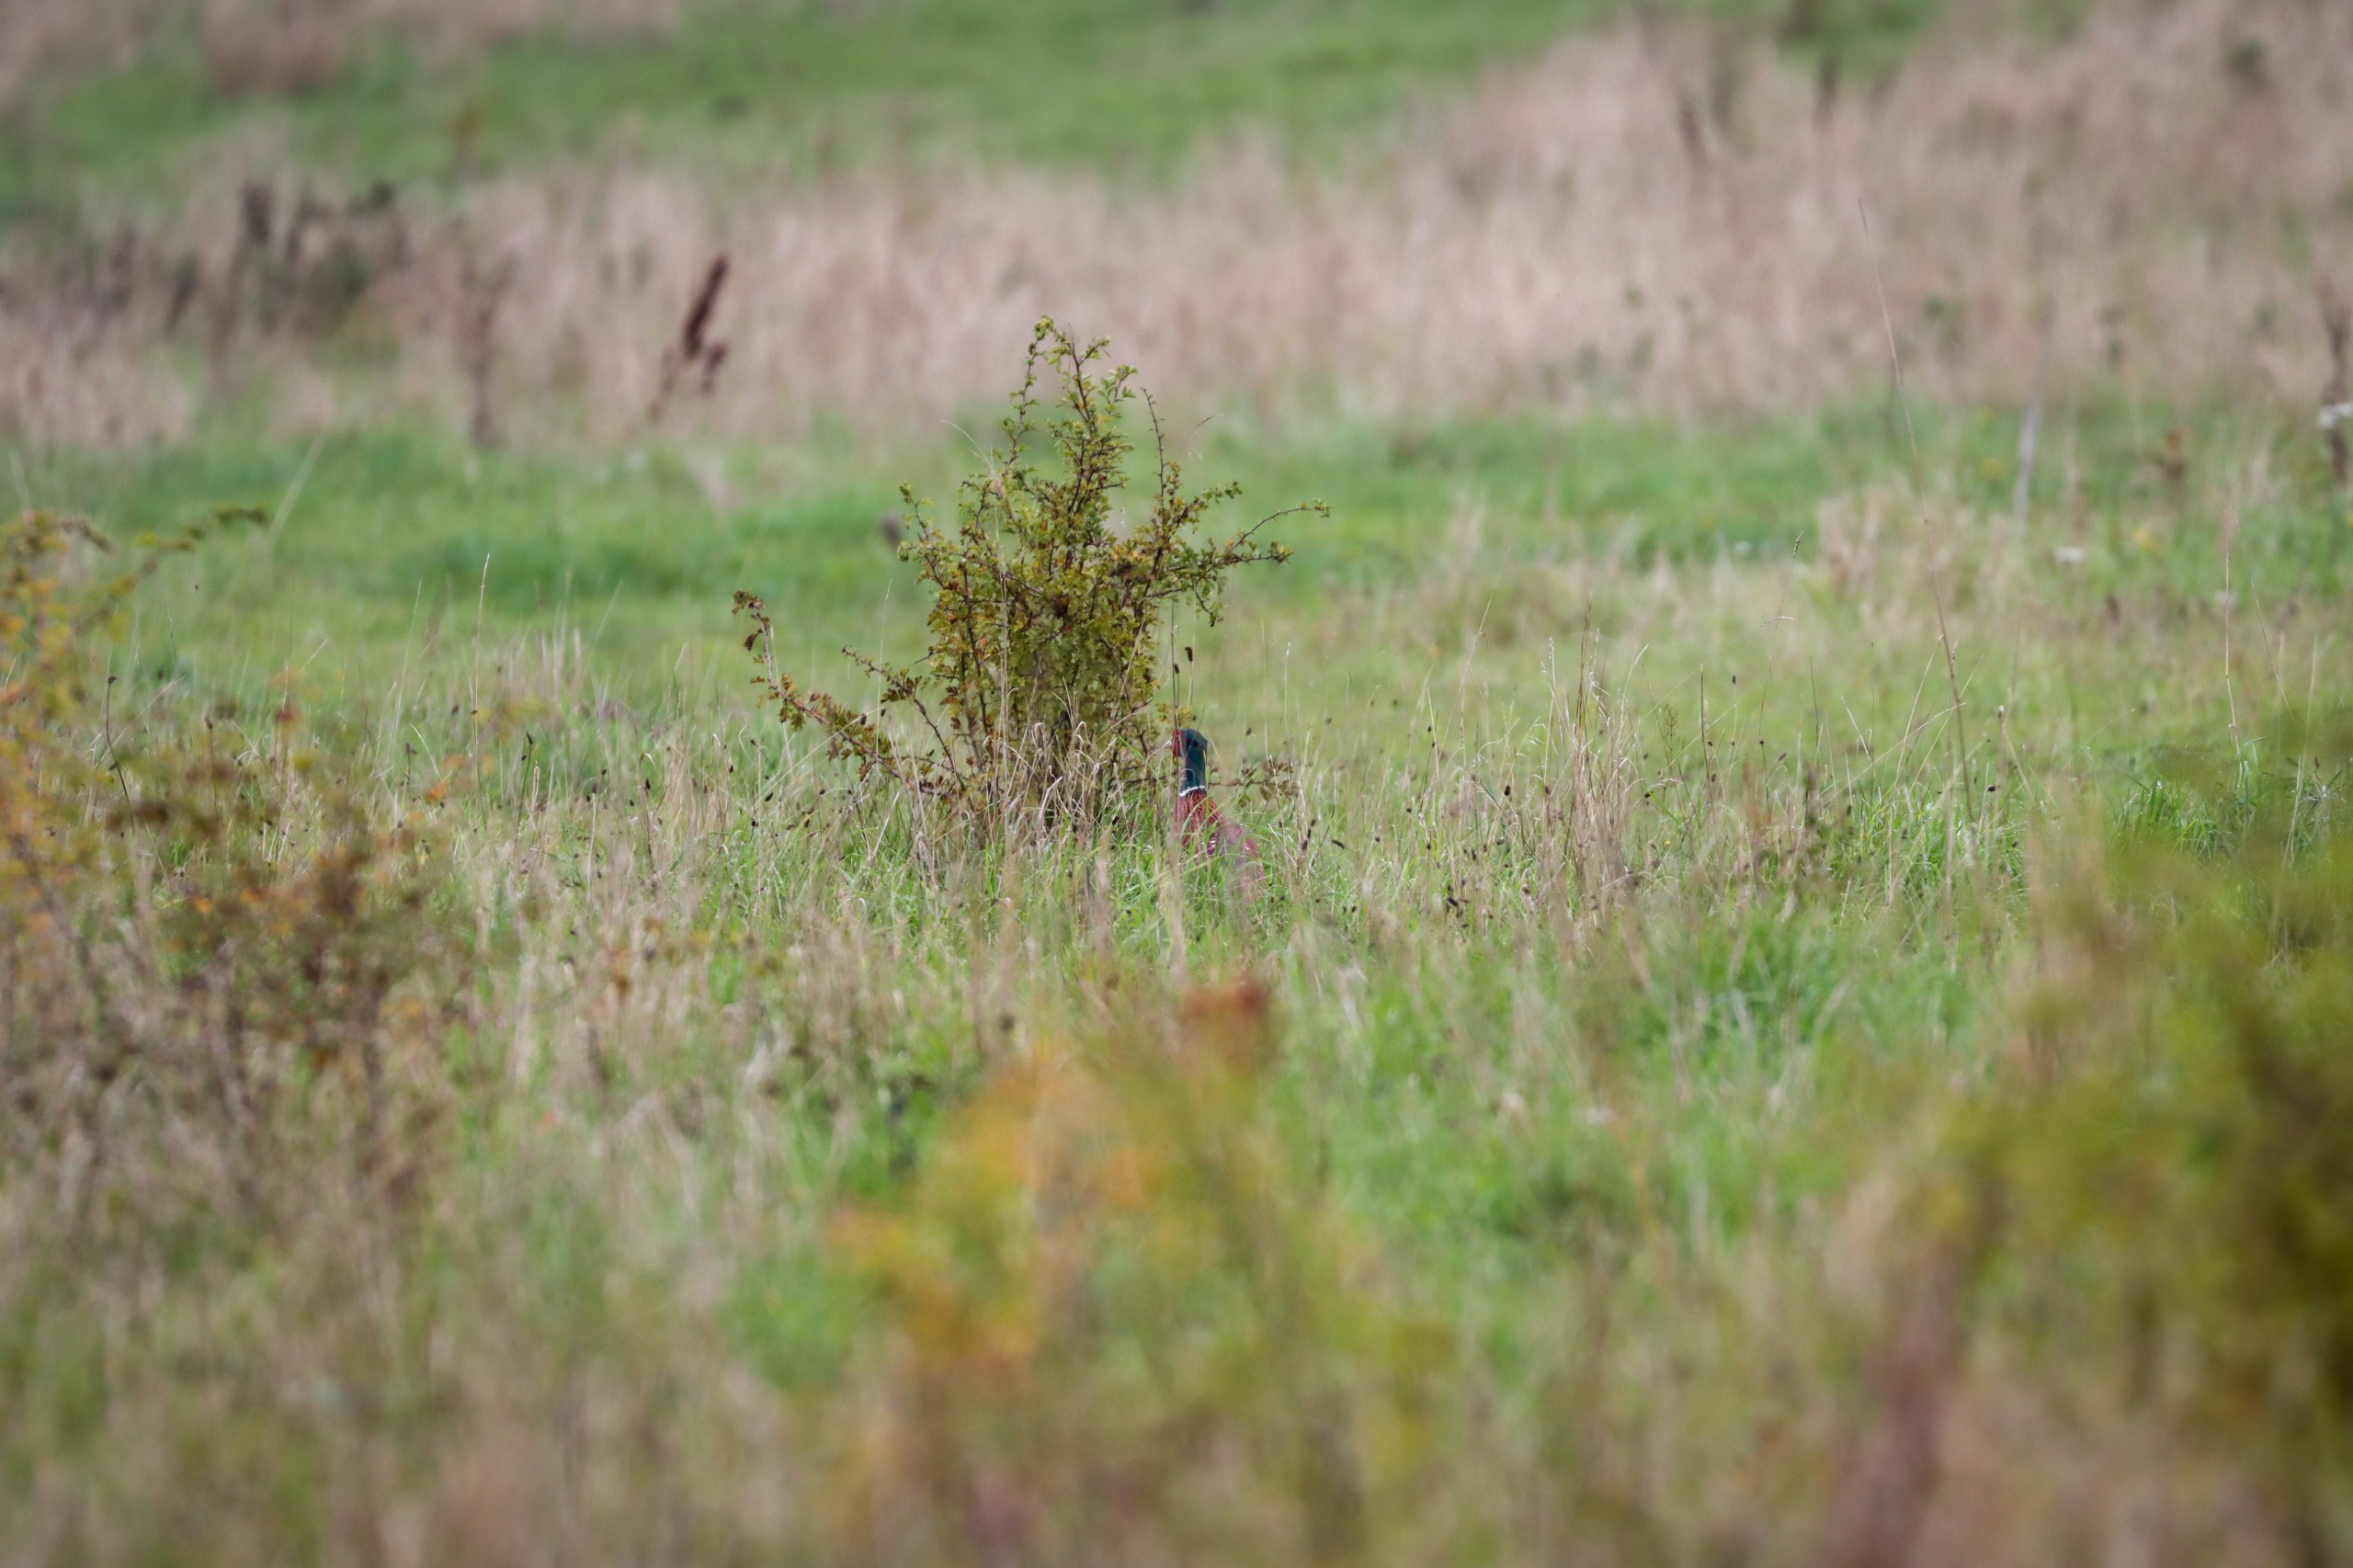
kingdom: Animalia
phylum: Chordata
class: Aves
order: Galliformes
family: Phasianidae
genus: Phasianus
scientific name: Phasianus colchicus
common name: Fasan
